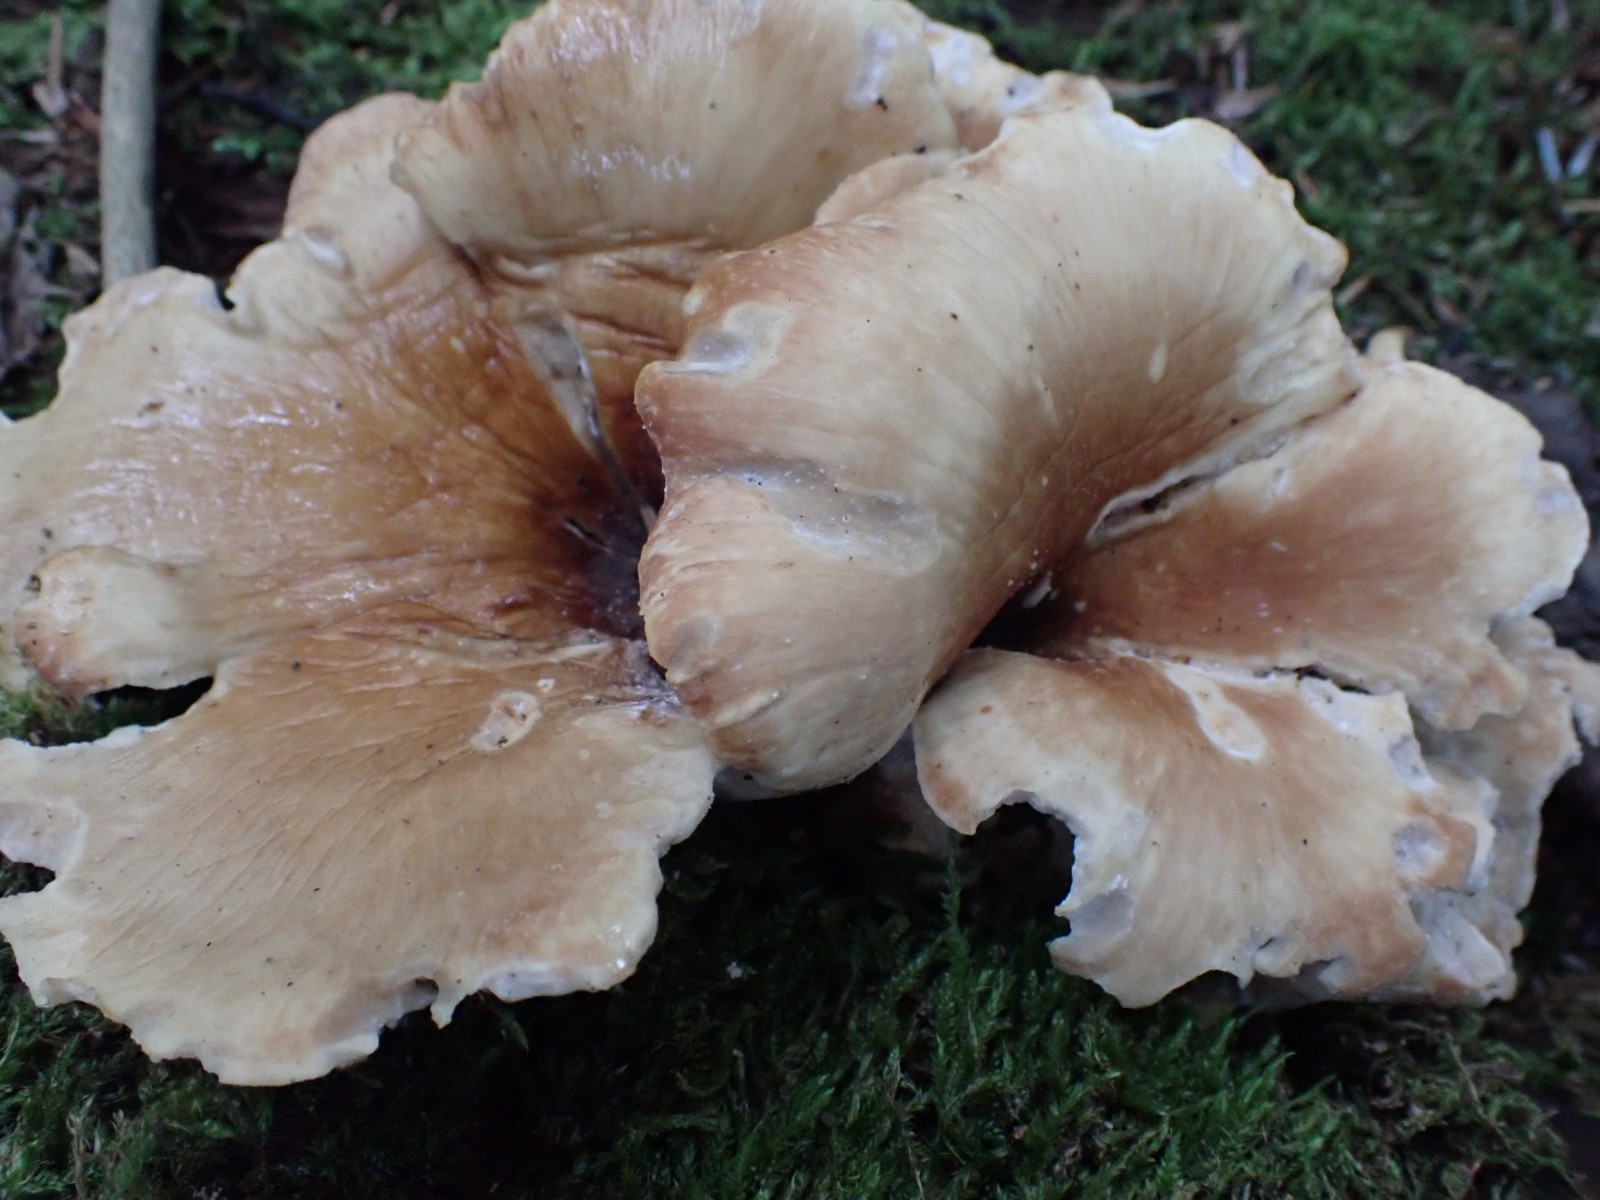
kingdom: Fungi
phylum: Basidiomycota
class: Agaricomycetes
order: Polyporales
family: Polyporaceae
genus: Picipes
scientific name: Picipes badius
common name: kastaniebrun stilkporesvamp
